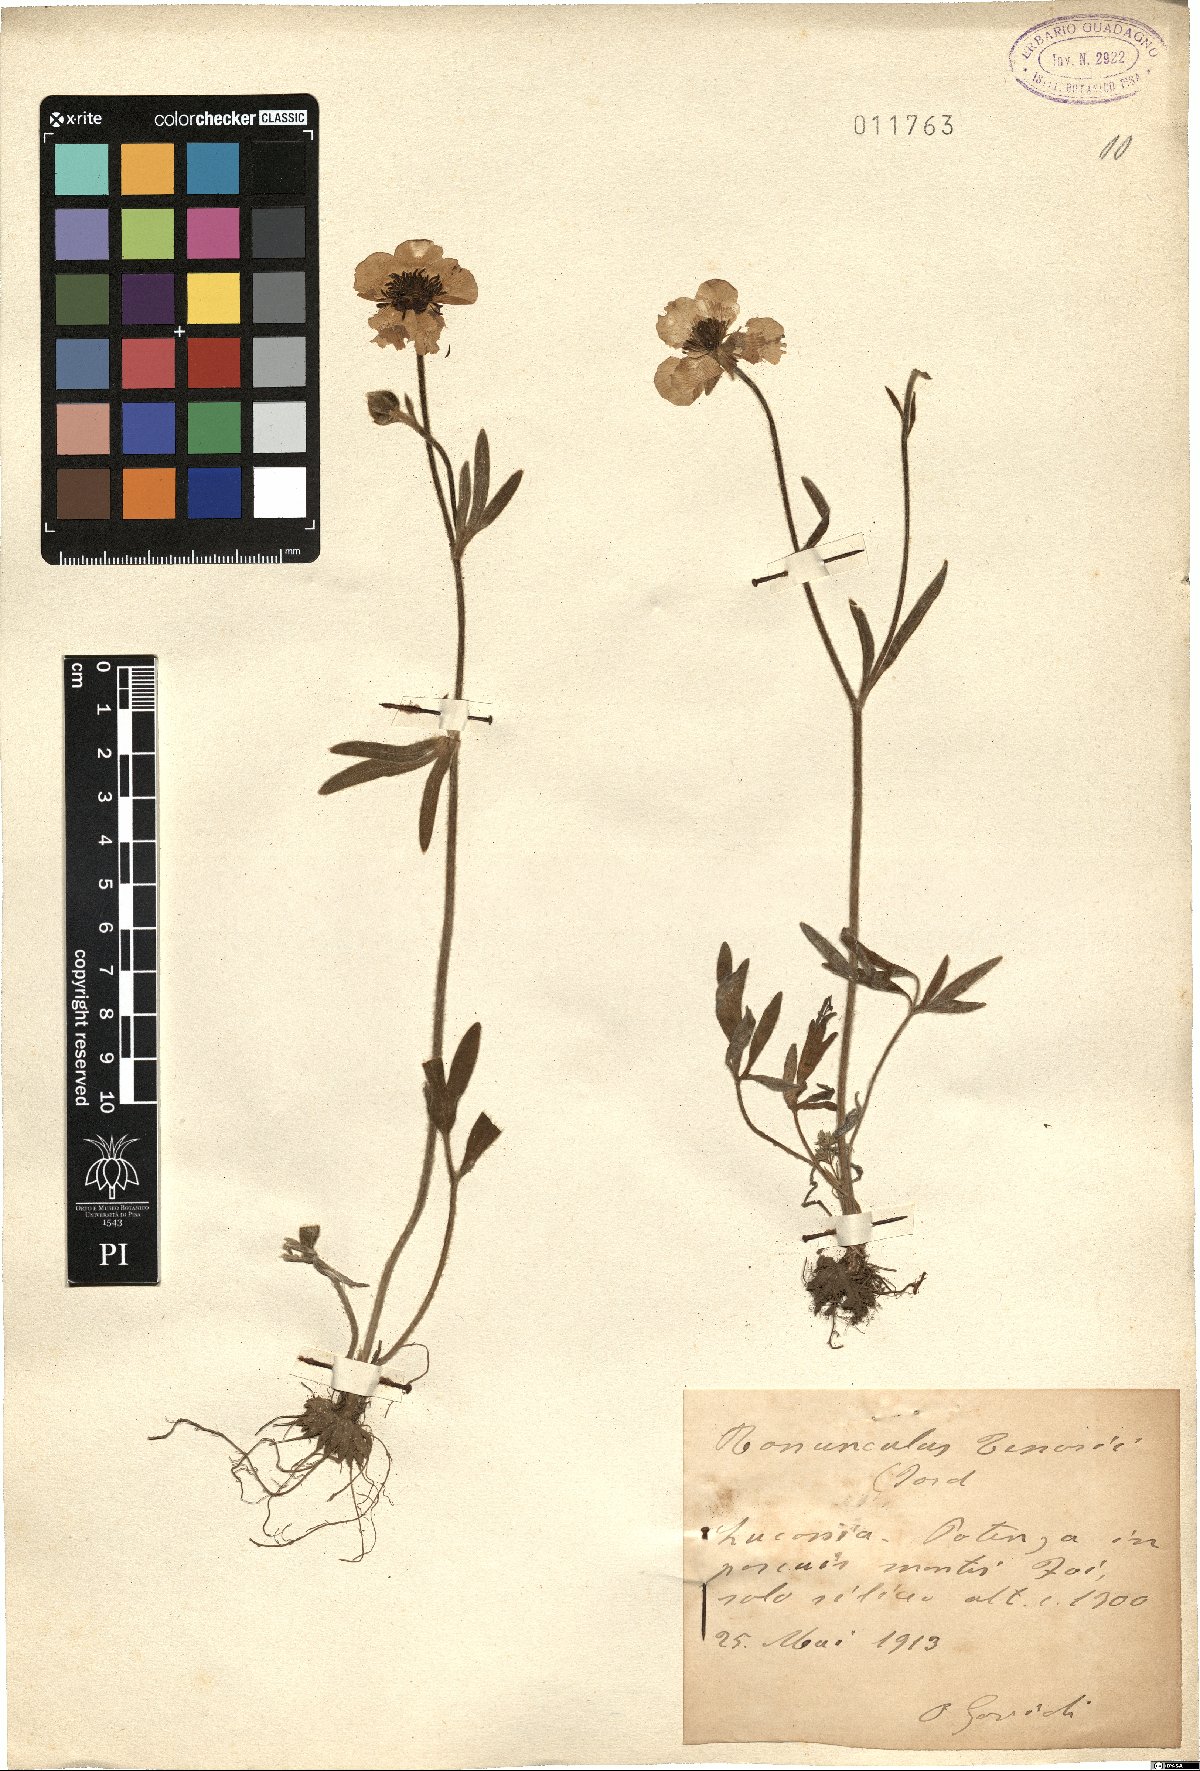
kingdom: Plantae
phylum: Tracheophyta
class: Magnoliopsida
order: Ranunculales
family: Ranunculaceae
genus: Ranunculus
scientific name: Ranunculus illyricus
